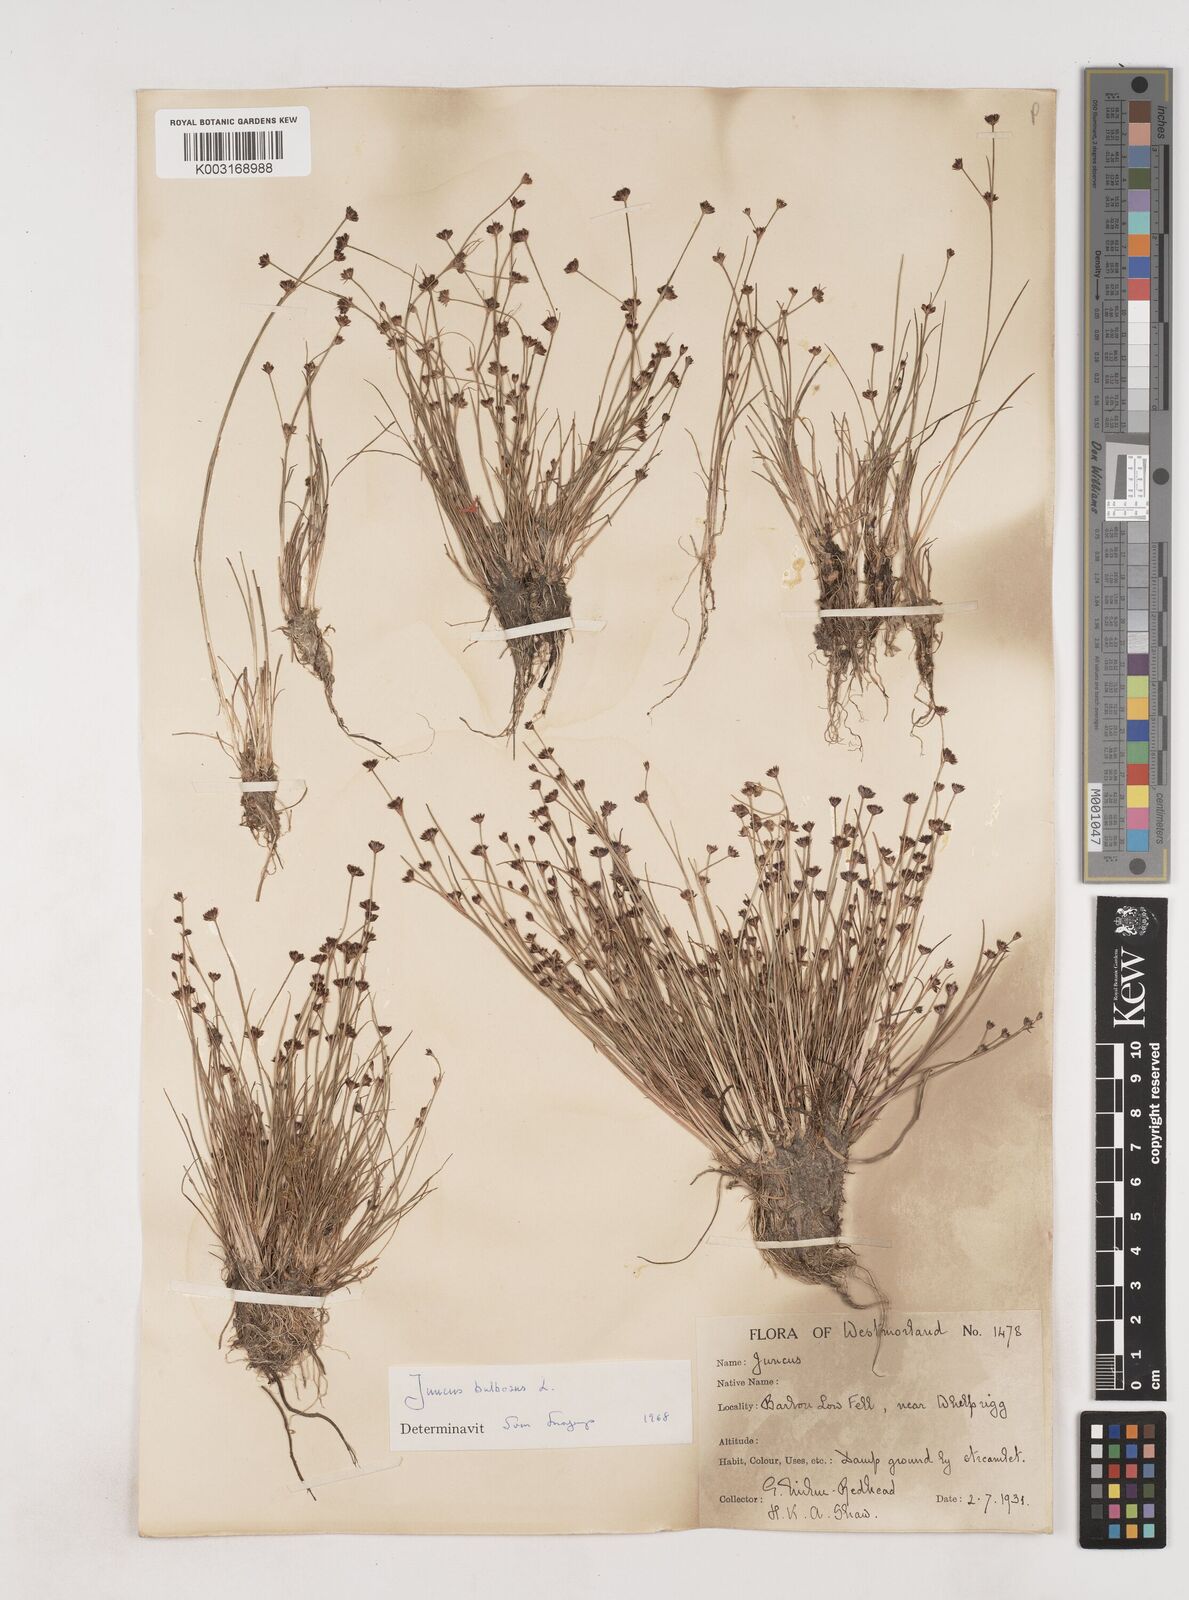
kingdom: Plantae
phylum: Tracheophyta
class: Liliopsida
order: Poales
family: Juncaceae
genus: Juncus
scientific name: Juncus bulbosus
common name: Bulbous rush
